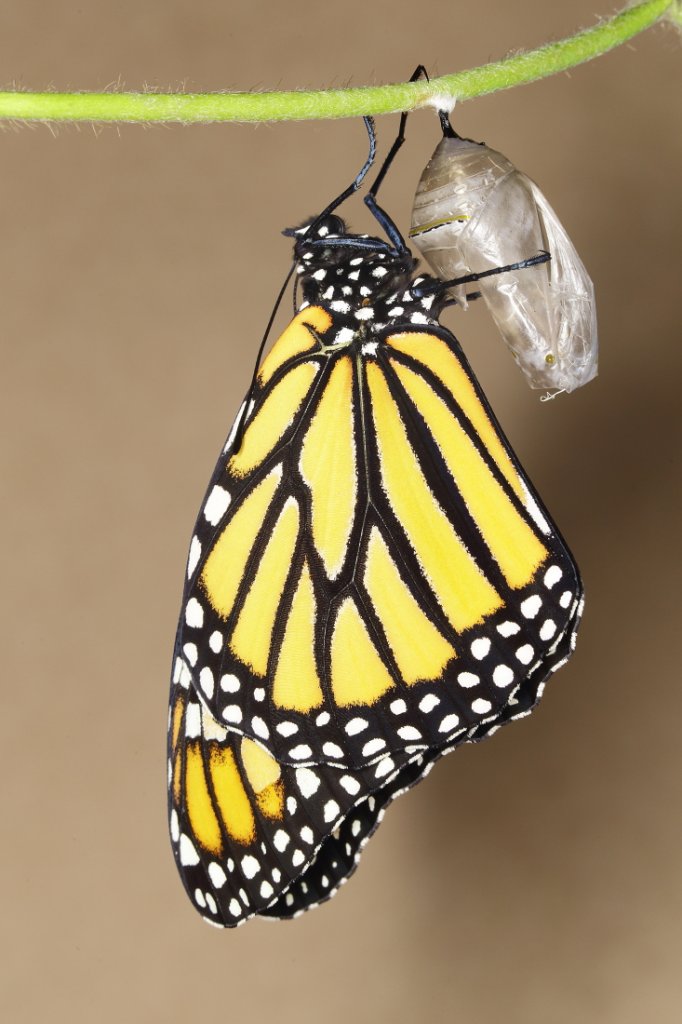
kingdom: Animalia
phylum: Arthropoda
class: Insecta
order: Lepidoptera
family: Nymphalidae
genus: Danaus
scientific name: Danaus plexippus
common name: Monarch
